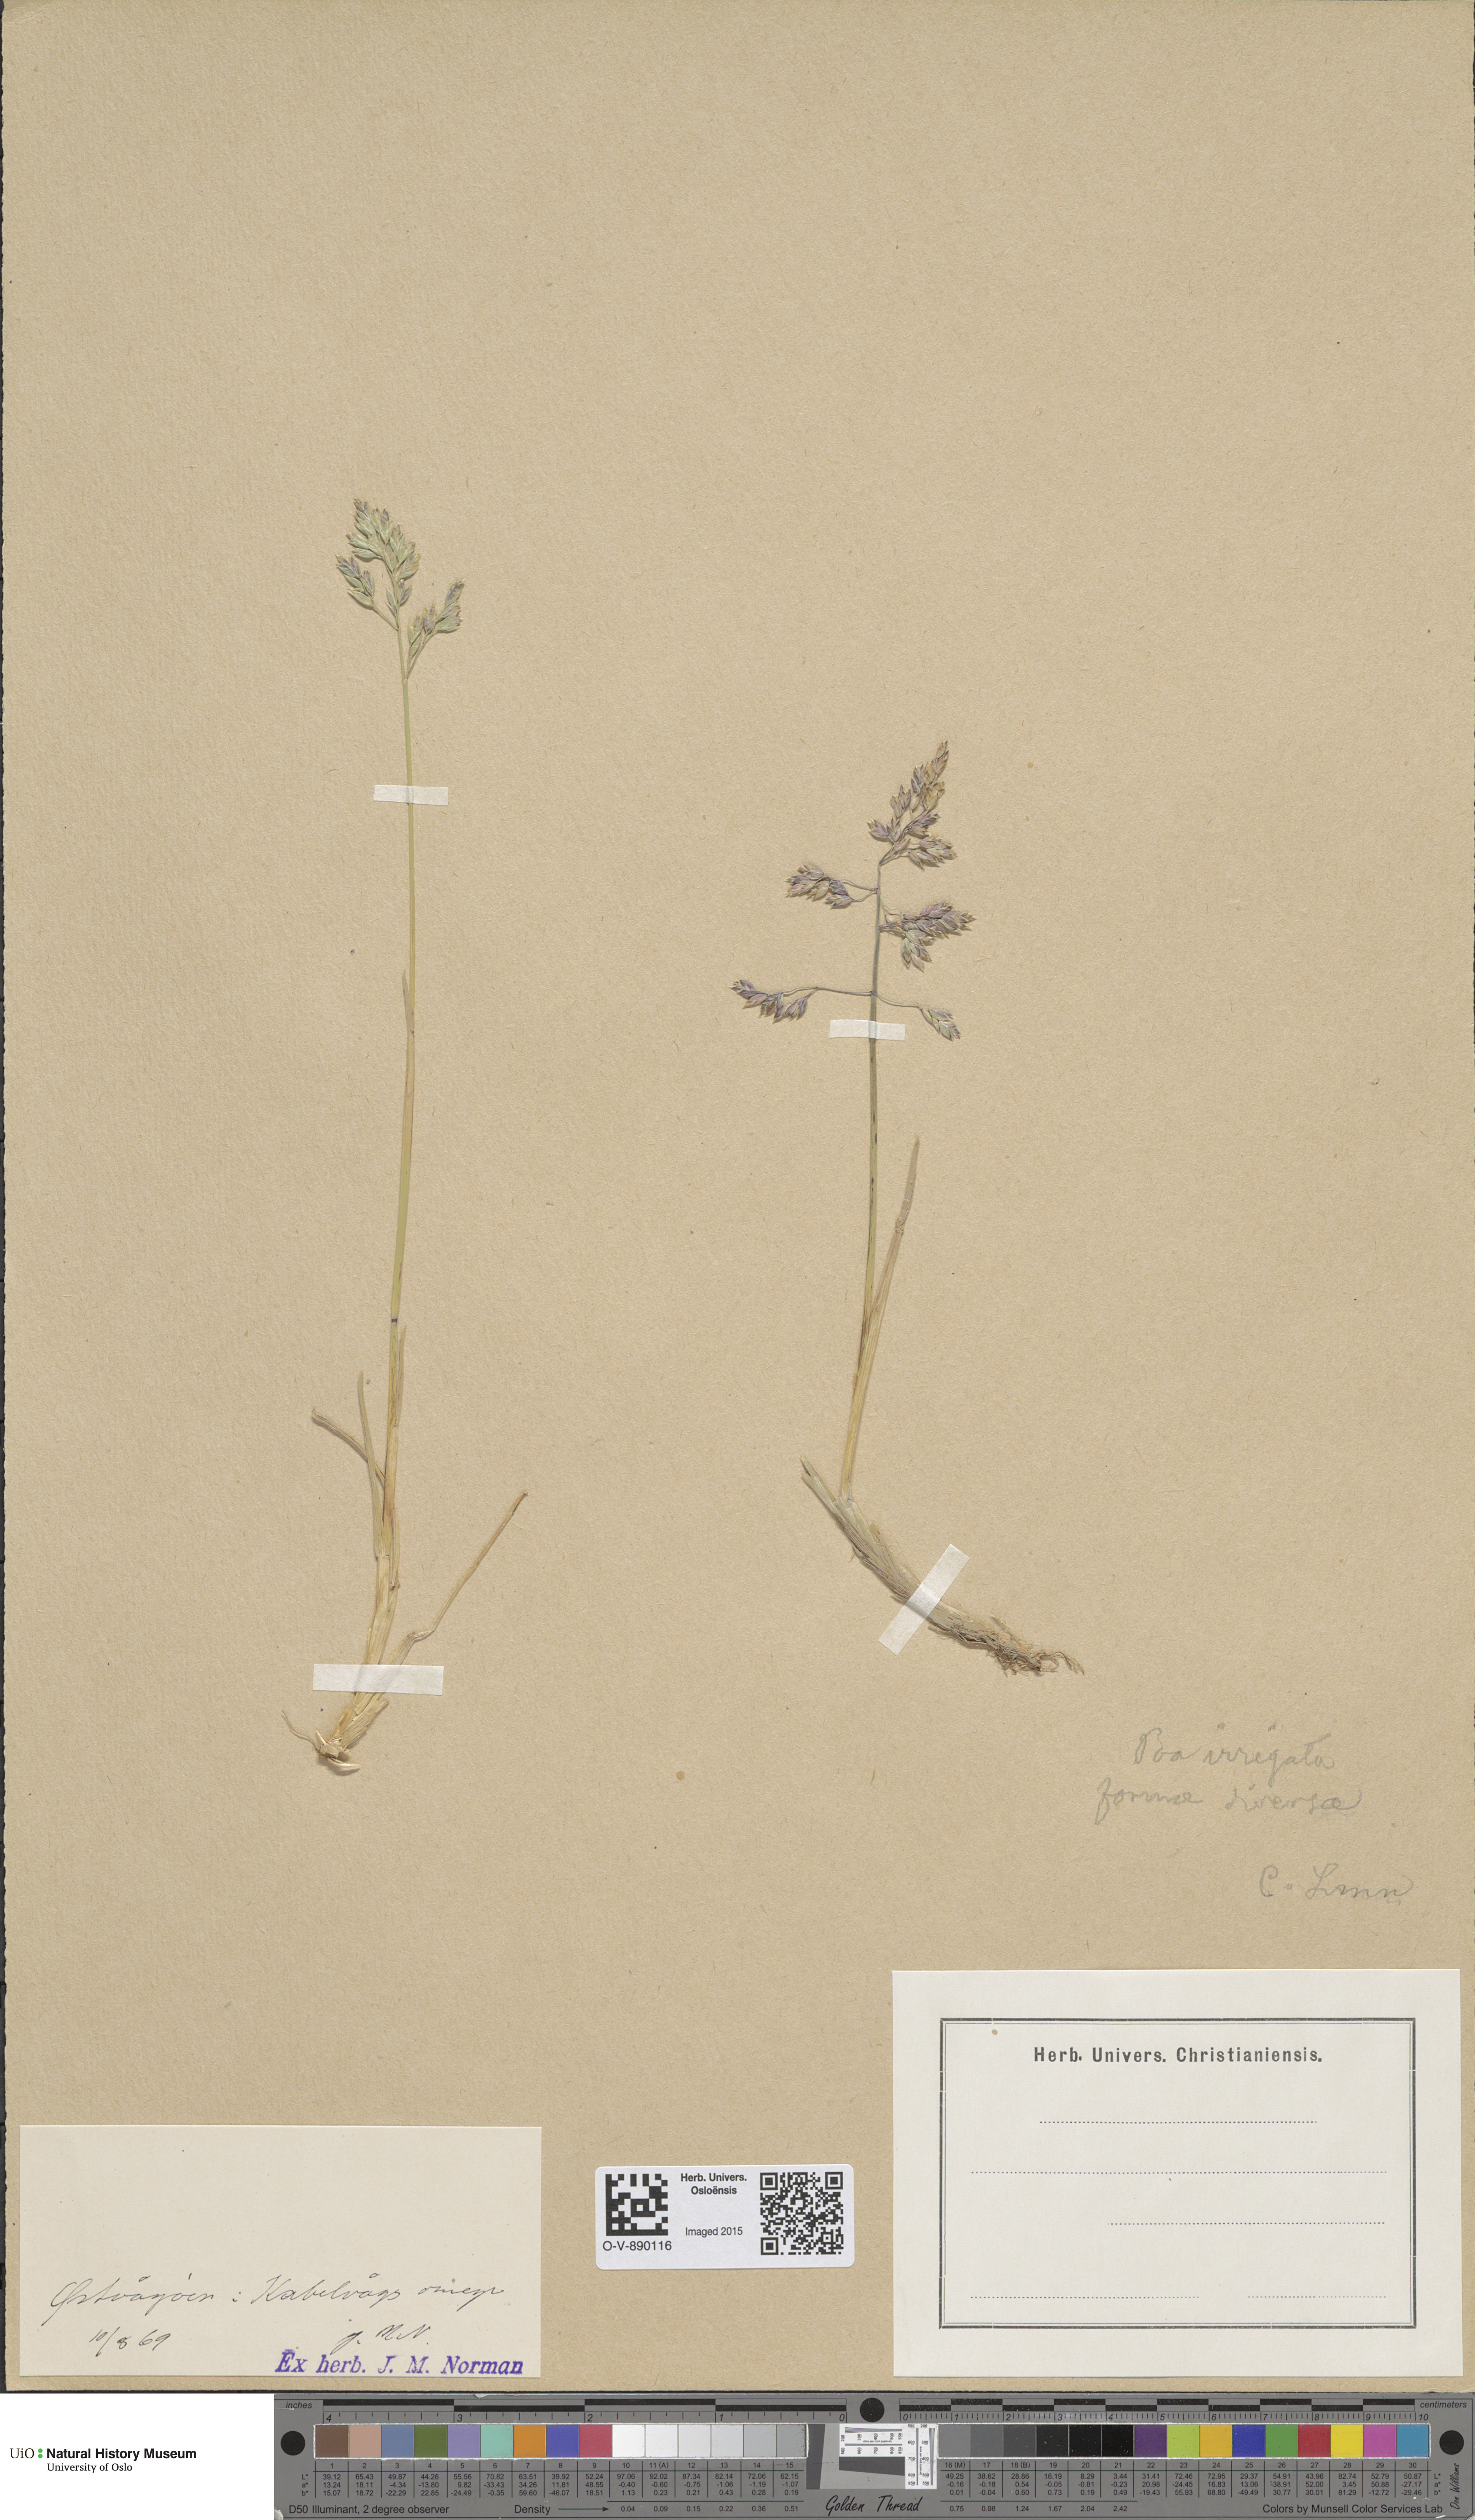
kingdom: Plantae
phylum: Tracheophyta
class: Liliopsida
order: Poales
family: Poaceae
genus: Poa
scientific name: Poa humilis
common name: Spreading meadow-grass
